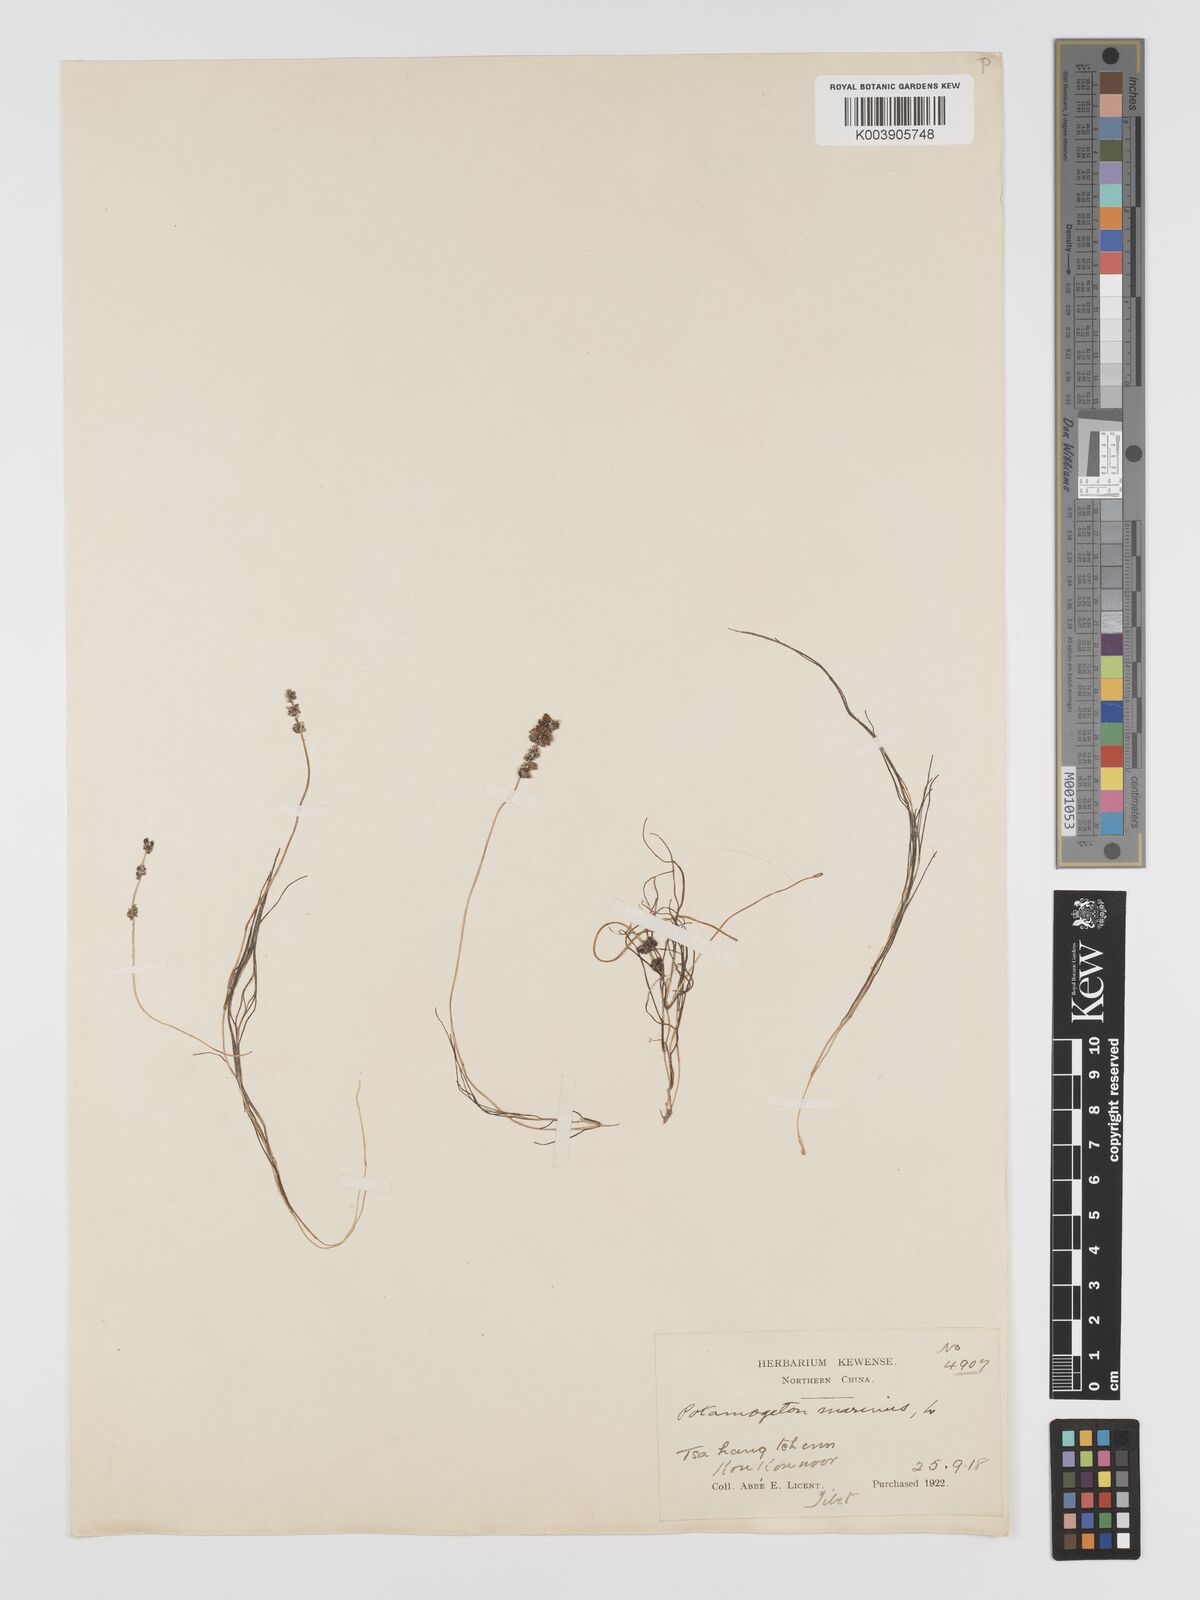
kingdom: Plantae
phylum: Tracheophyta
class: Liliopsida
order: Alismatales
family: Potamogetonaceae
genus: Potamogeton
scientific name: Potamogeton filiformis
